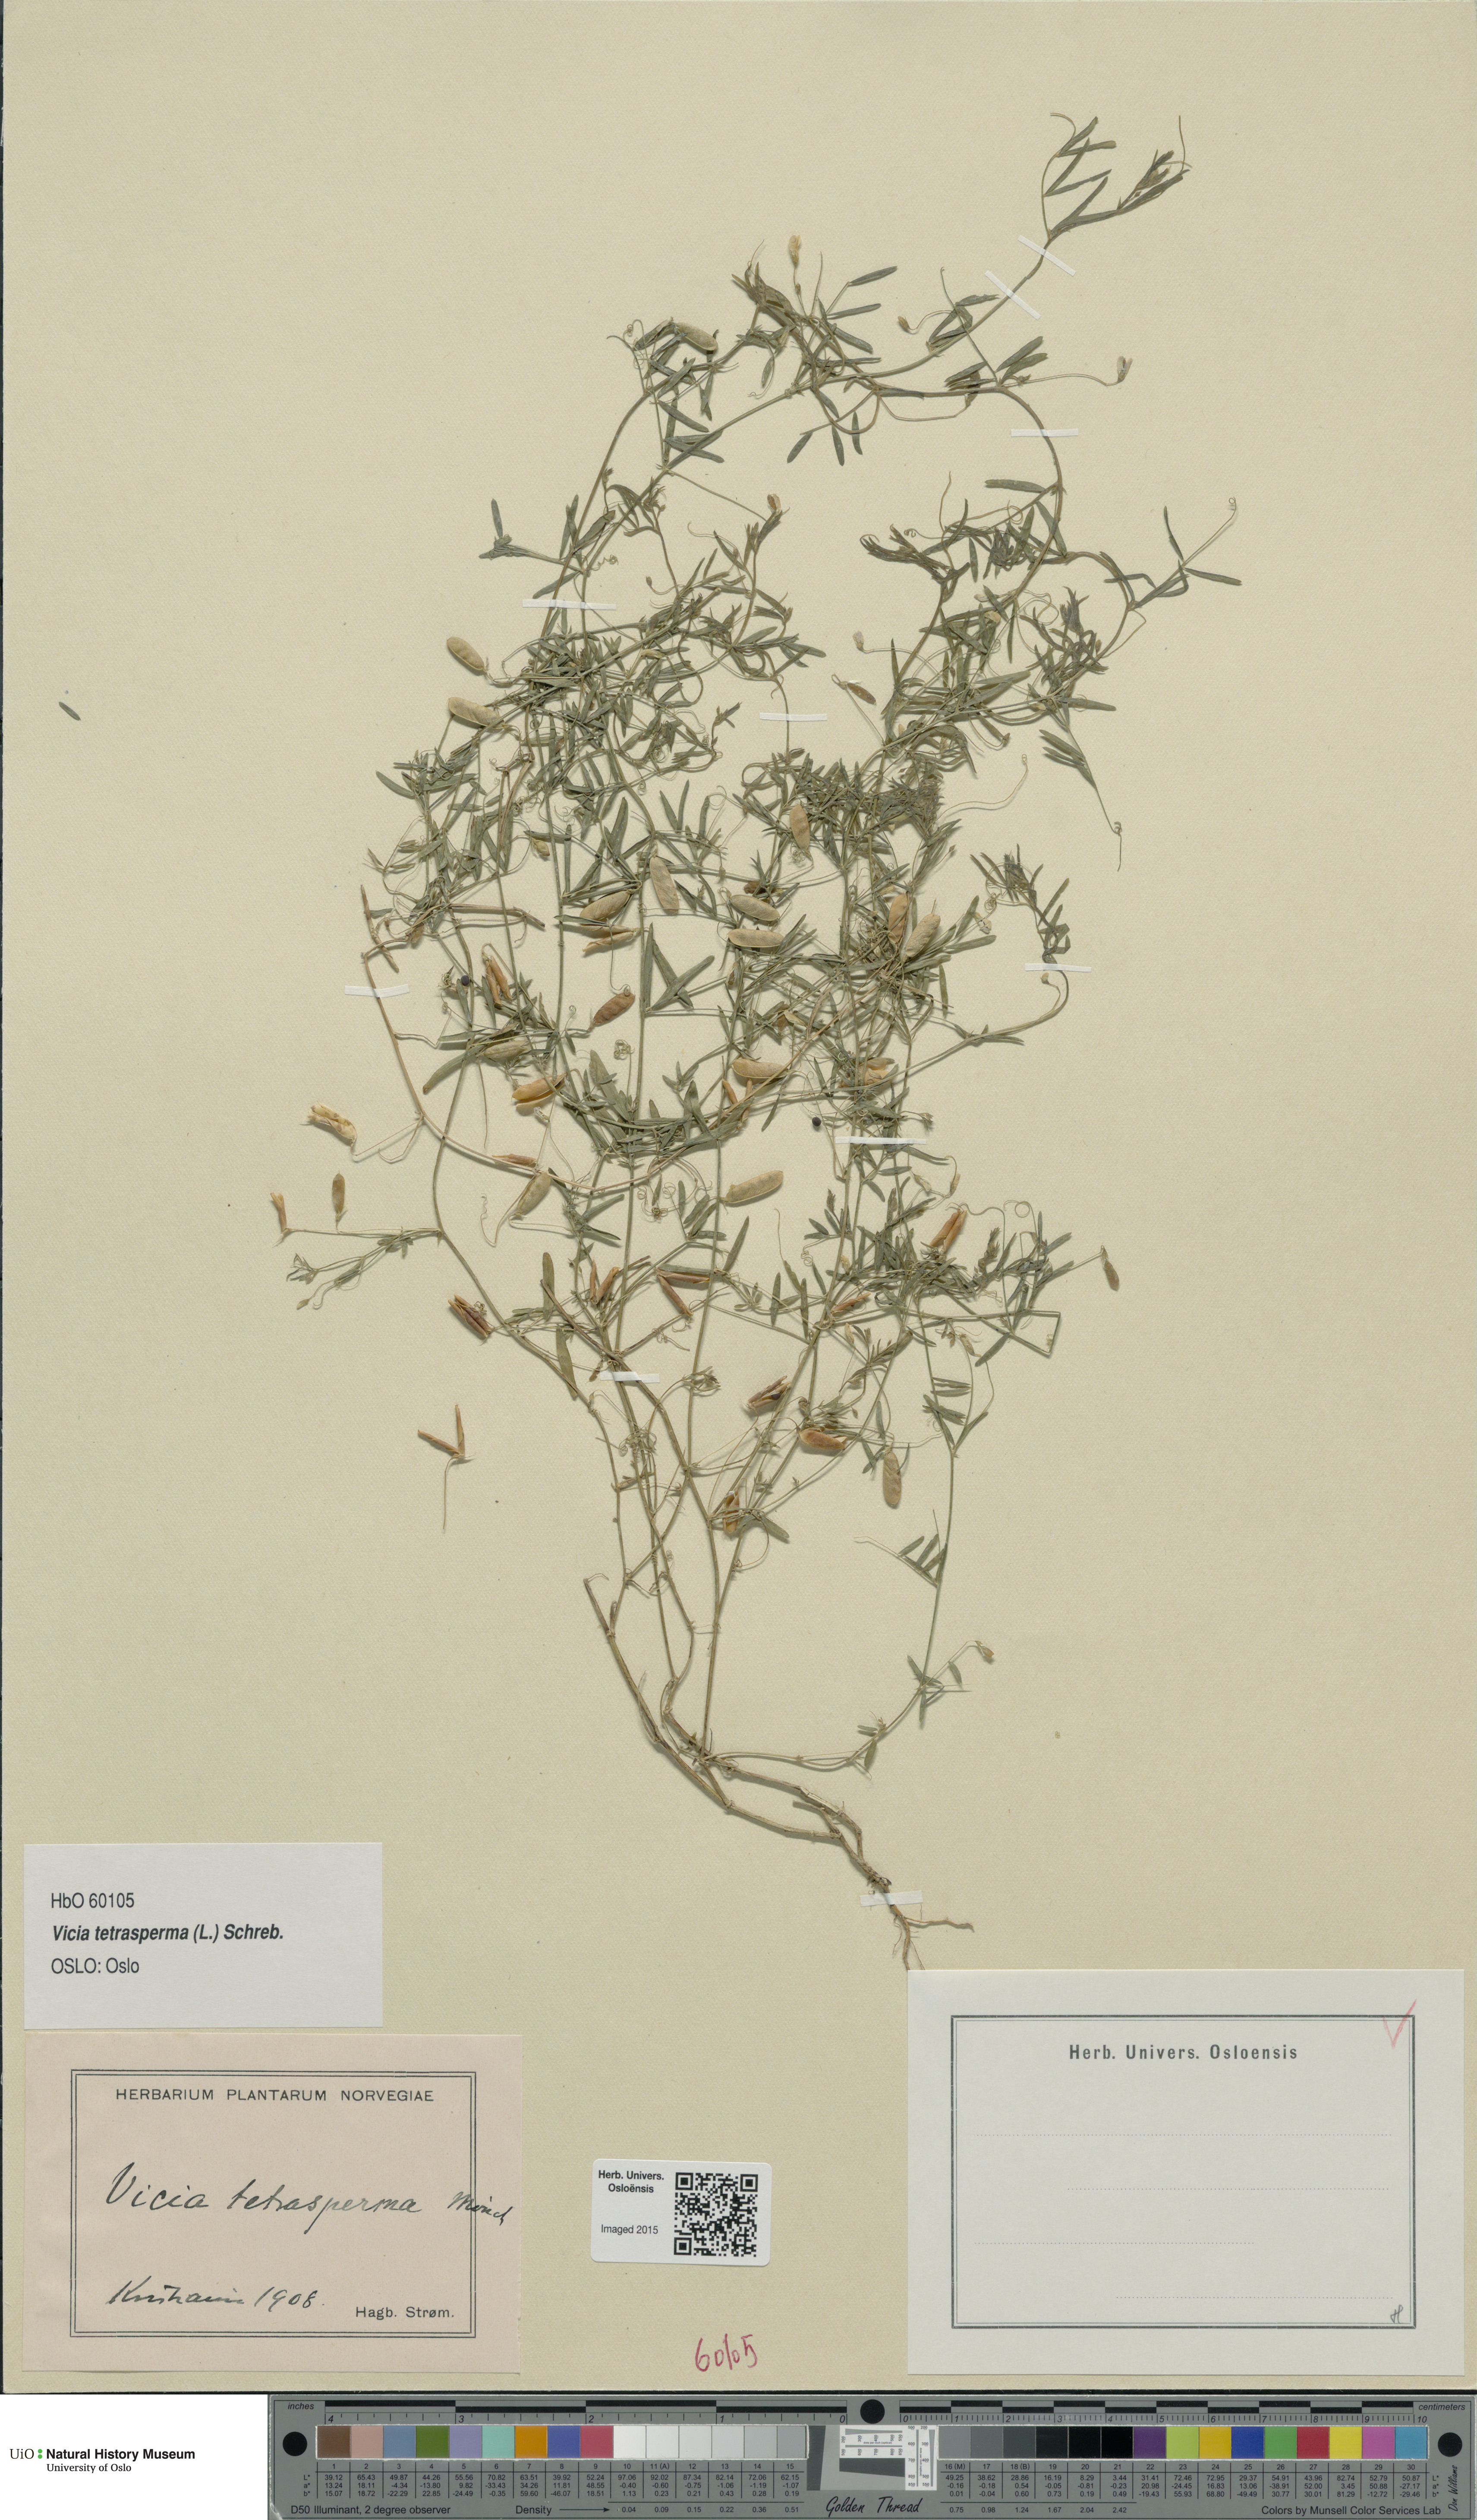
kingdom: Plantae
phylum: Tracheophyta
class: Magnoliopsida
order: Fabales
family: Fabaceae
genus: Vicia
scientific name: Vicia tetrasperma
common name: Smooth tare
